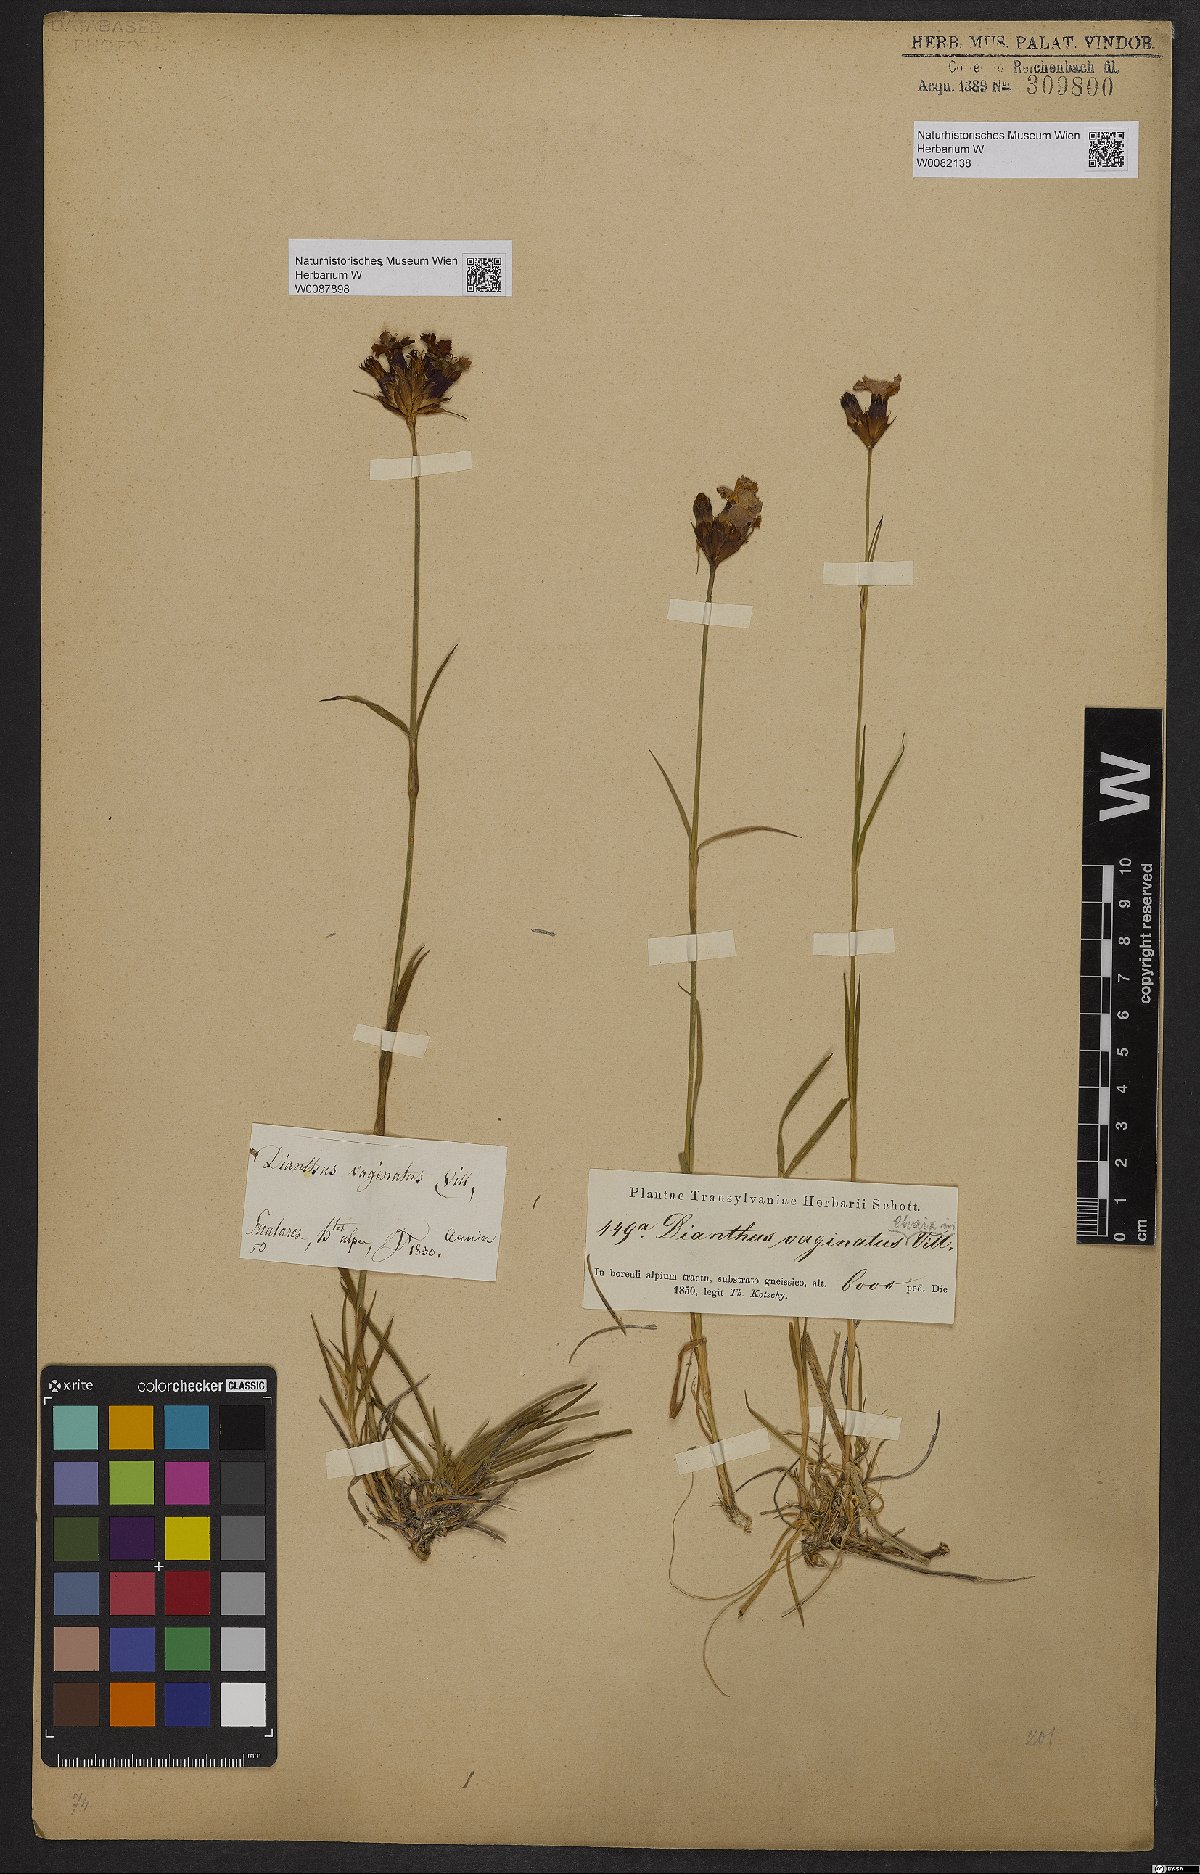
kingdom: Plantae
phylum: Tracheophyta
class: Magnoliopsida
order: Caryophyllales
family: Caryophyllaceae
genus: Dianthus
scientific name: Dianthus carthusianorum
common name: Carthusian pink
